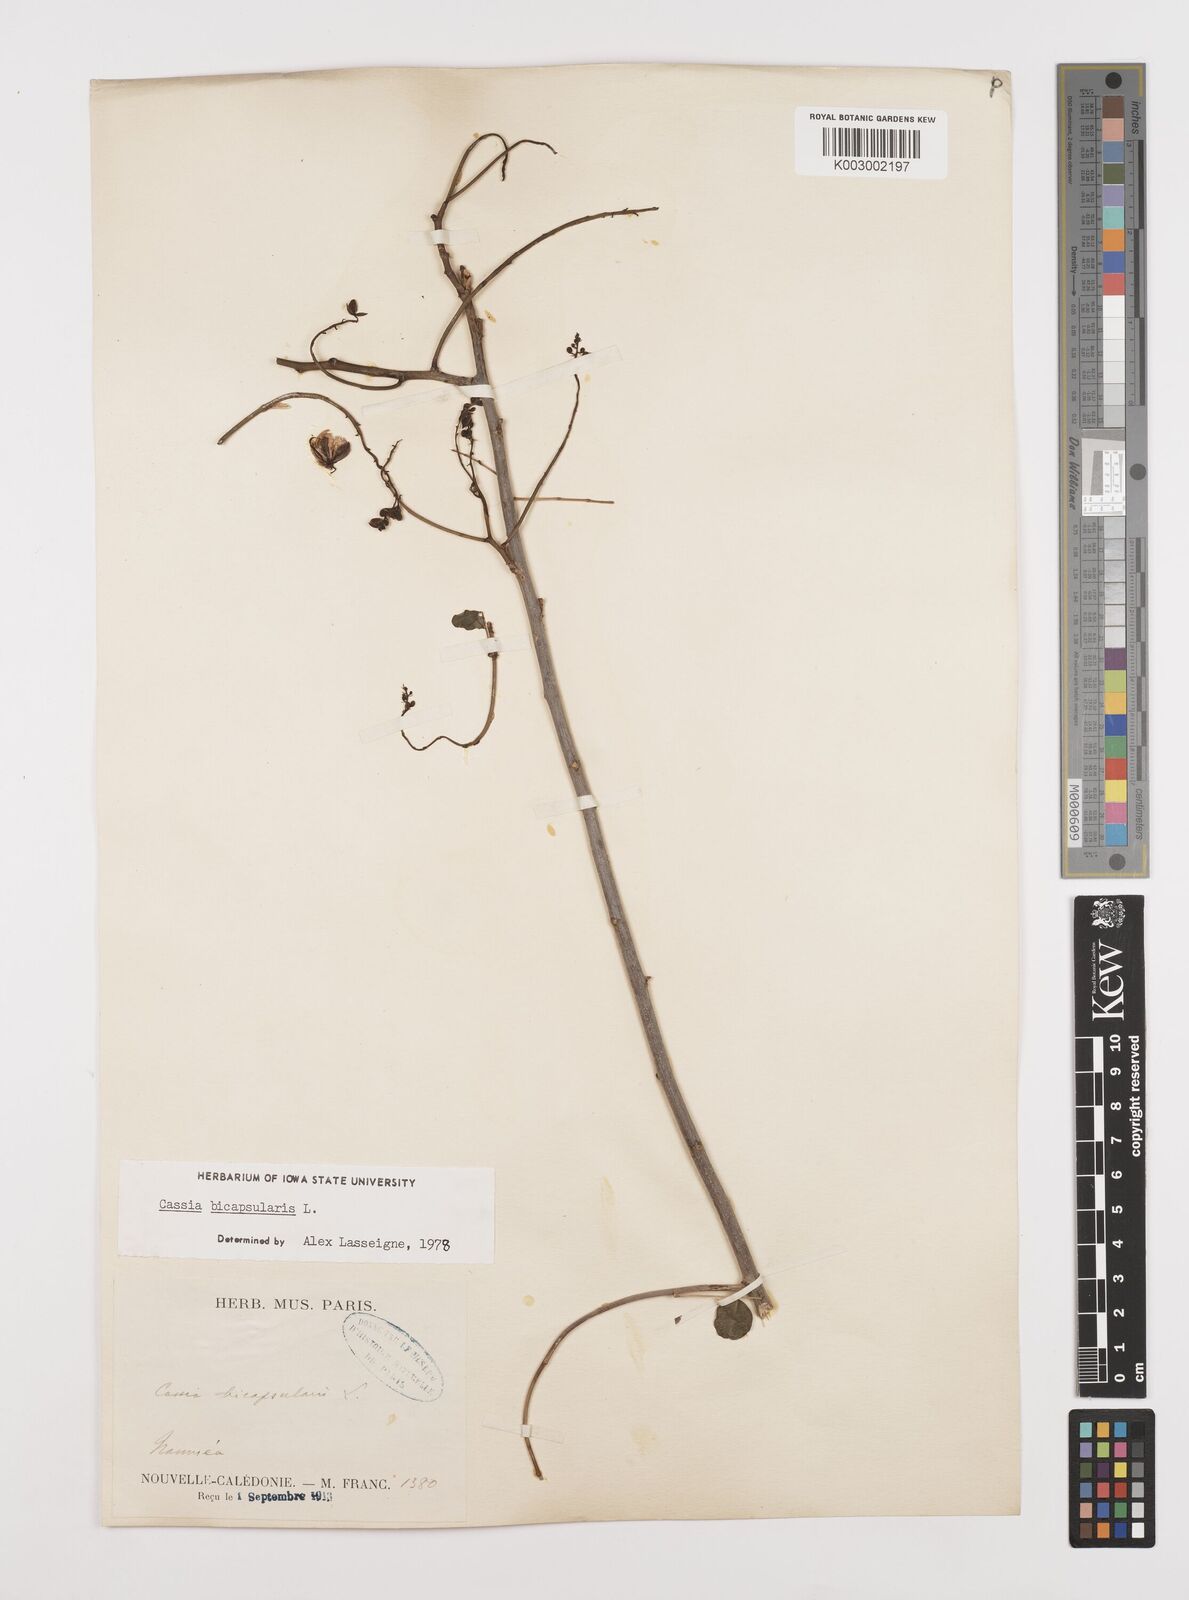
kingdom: Plantae
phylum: Tracheophyta
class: Magnoliopsida
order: Fabales
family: Fabaceae
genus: Senna
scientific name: Senna bicapsularis
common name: Christmasbush
